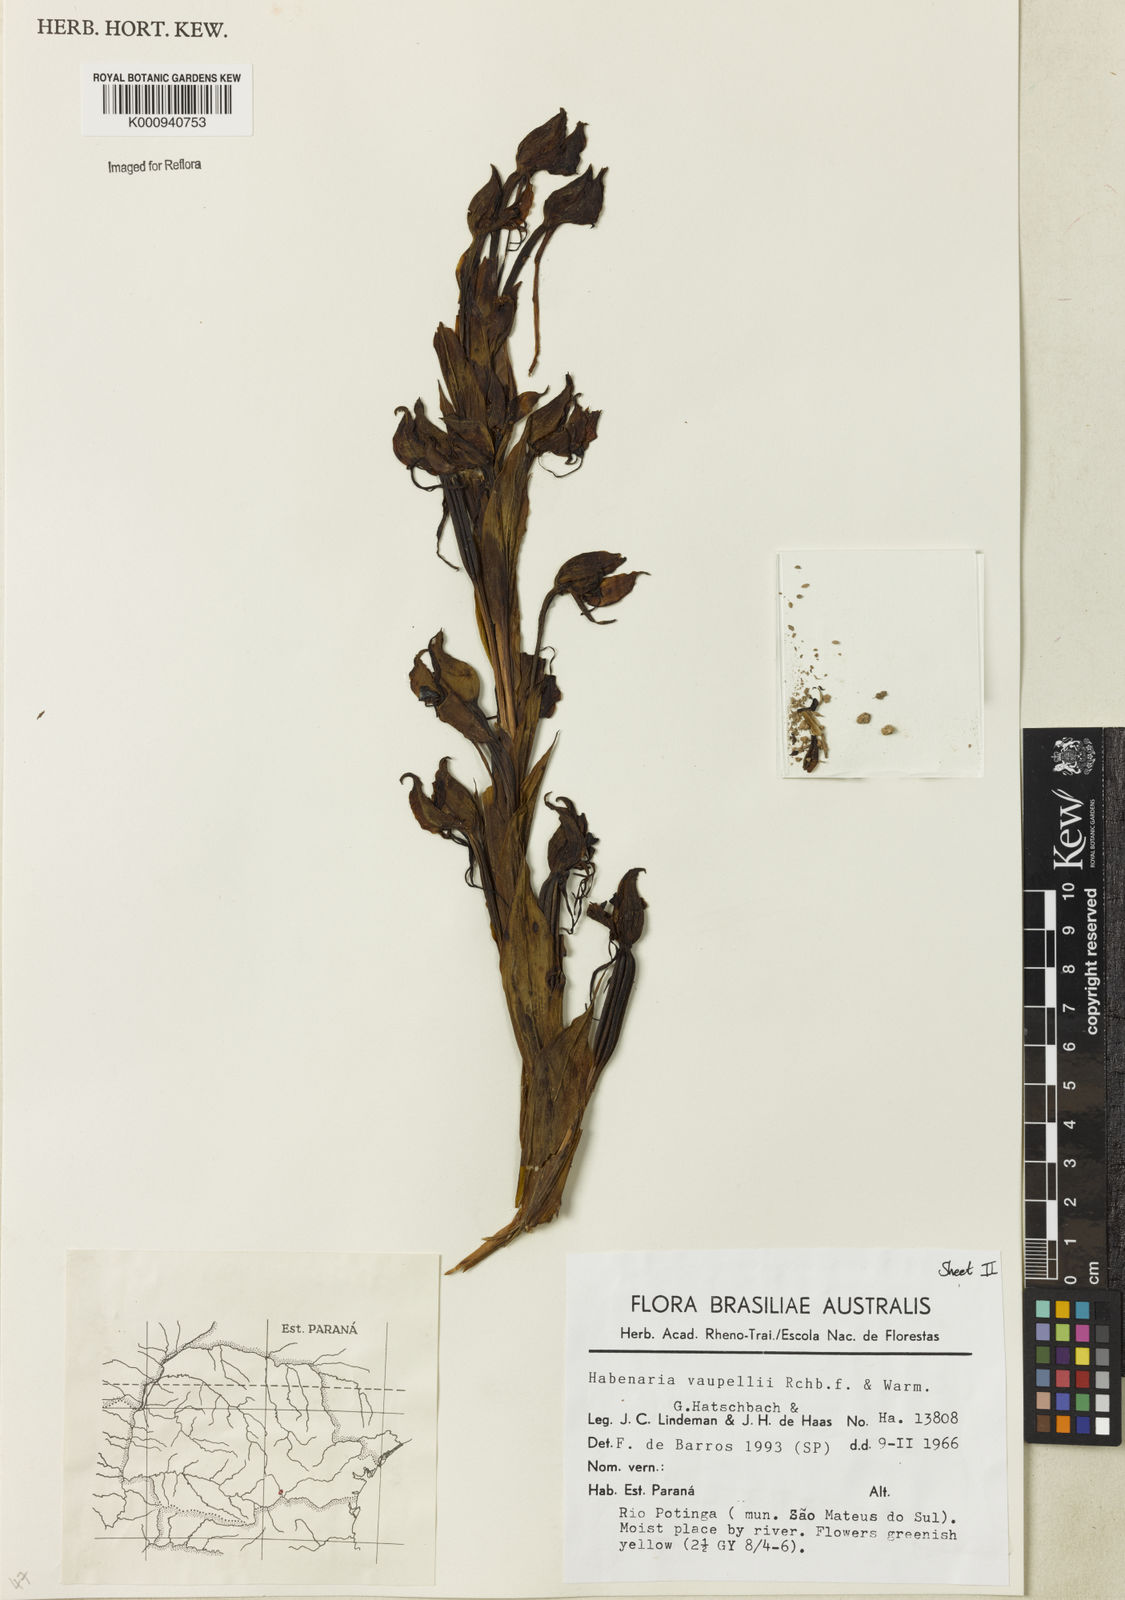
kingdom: Plantae
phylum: Tracheophyta
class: Liliopsida
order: Asparagales
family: Orchidaceae
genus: Habenaria
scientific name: Habenaria johannensis
